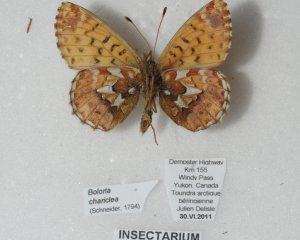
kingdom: Animalia
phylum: Arthropoda
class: Insecta
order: Lepidoptera
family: Nymphalidae
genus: Boloria
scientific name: Boloria chariclea
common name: Arctic Fritillary
